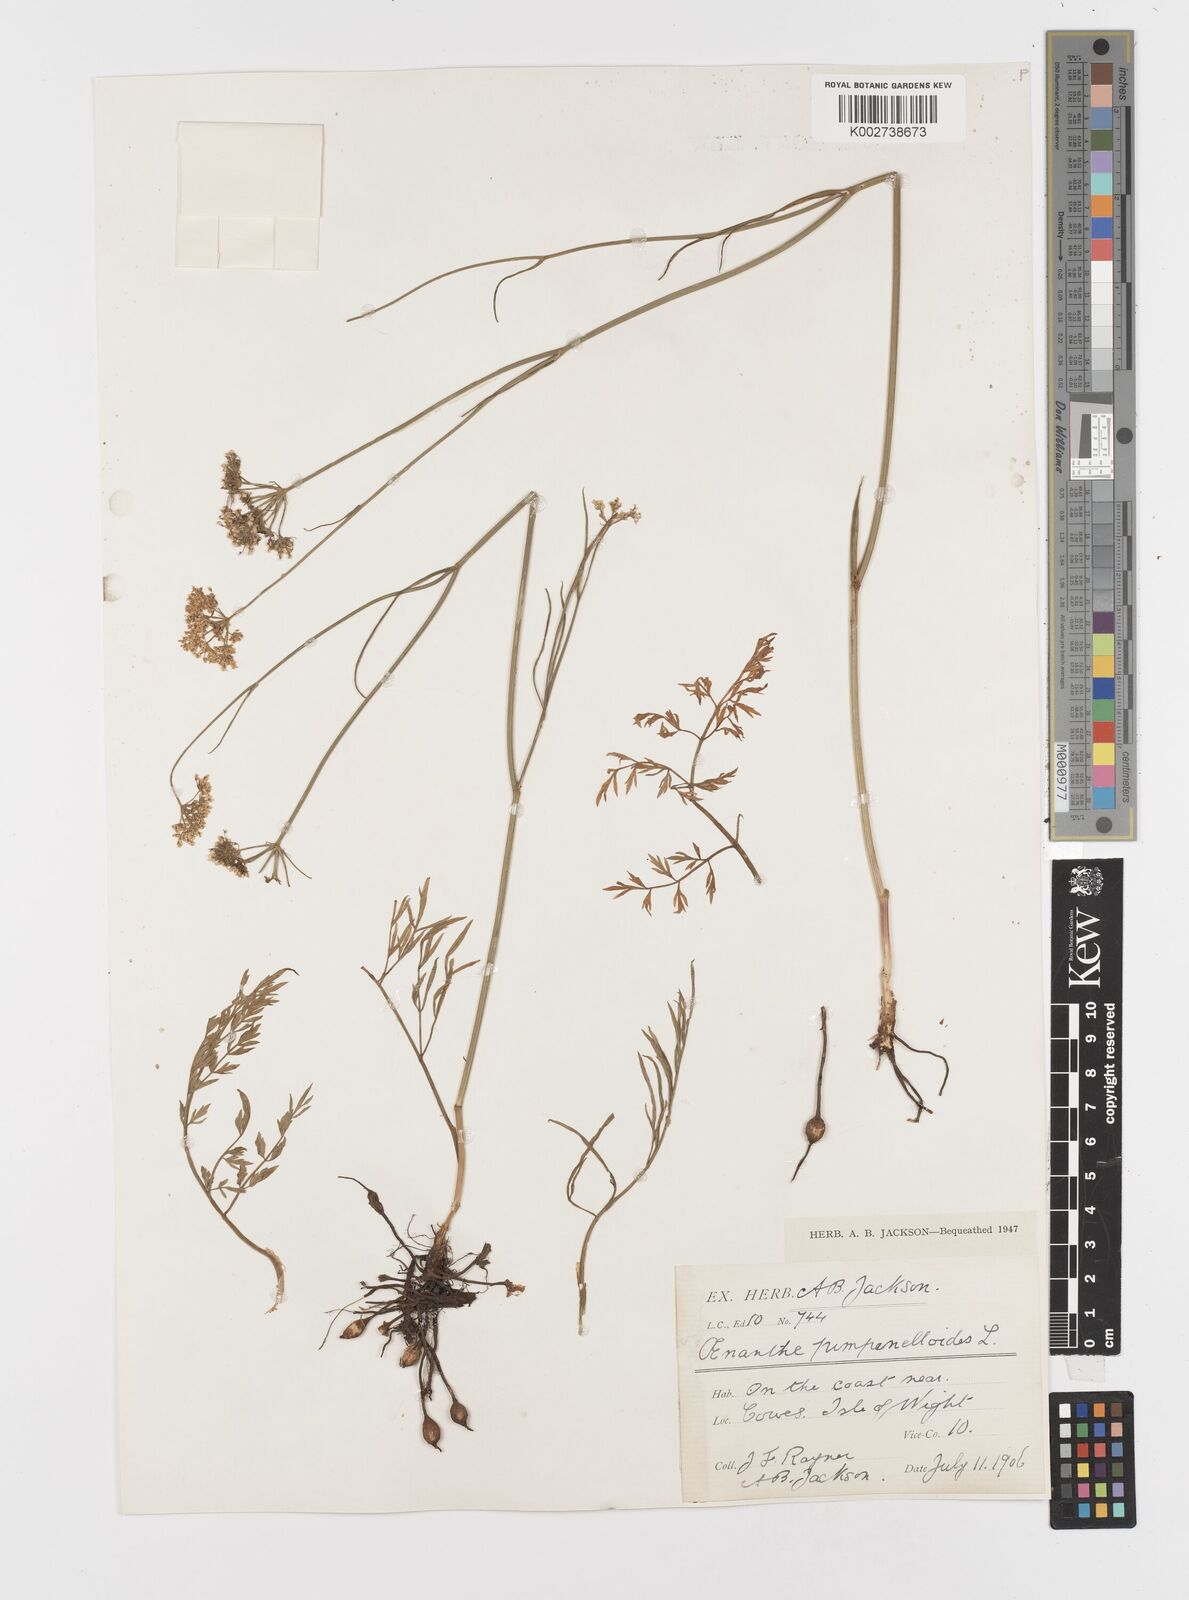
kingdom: Plantae
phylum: Tracheophyta
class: Magnoliopsida
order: Apiales
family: Apiaceae
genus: Oenanthe
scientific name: Oenanthe pimpinelloides
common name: Corky-fruited water-dropwort
